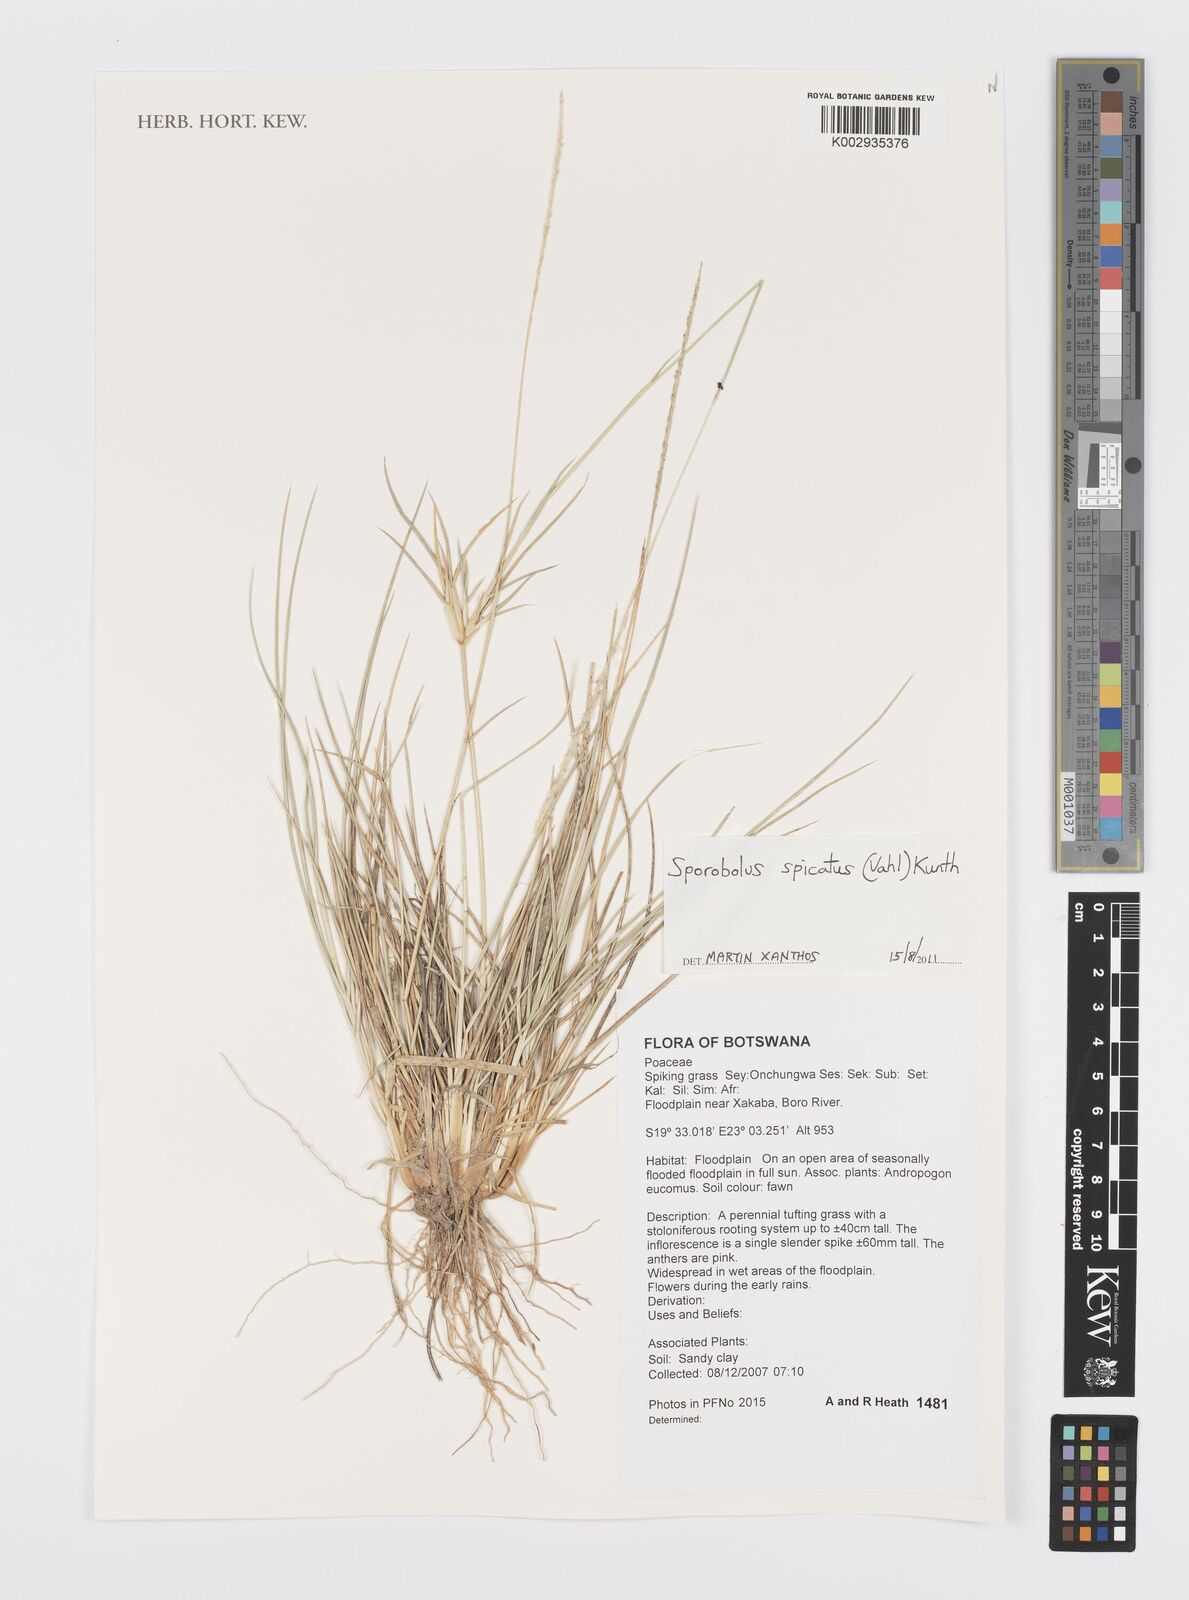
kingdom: Plantae
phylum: Tracheophyta
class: Liliopsida
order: Poales
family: Poaceae
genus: Sporobolus
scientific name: Sporobolus spicatus
